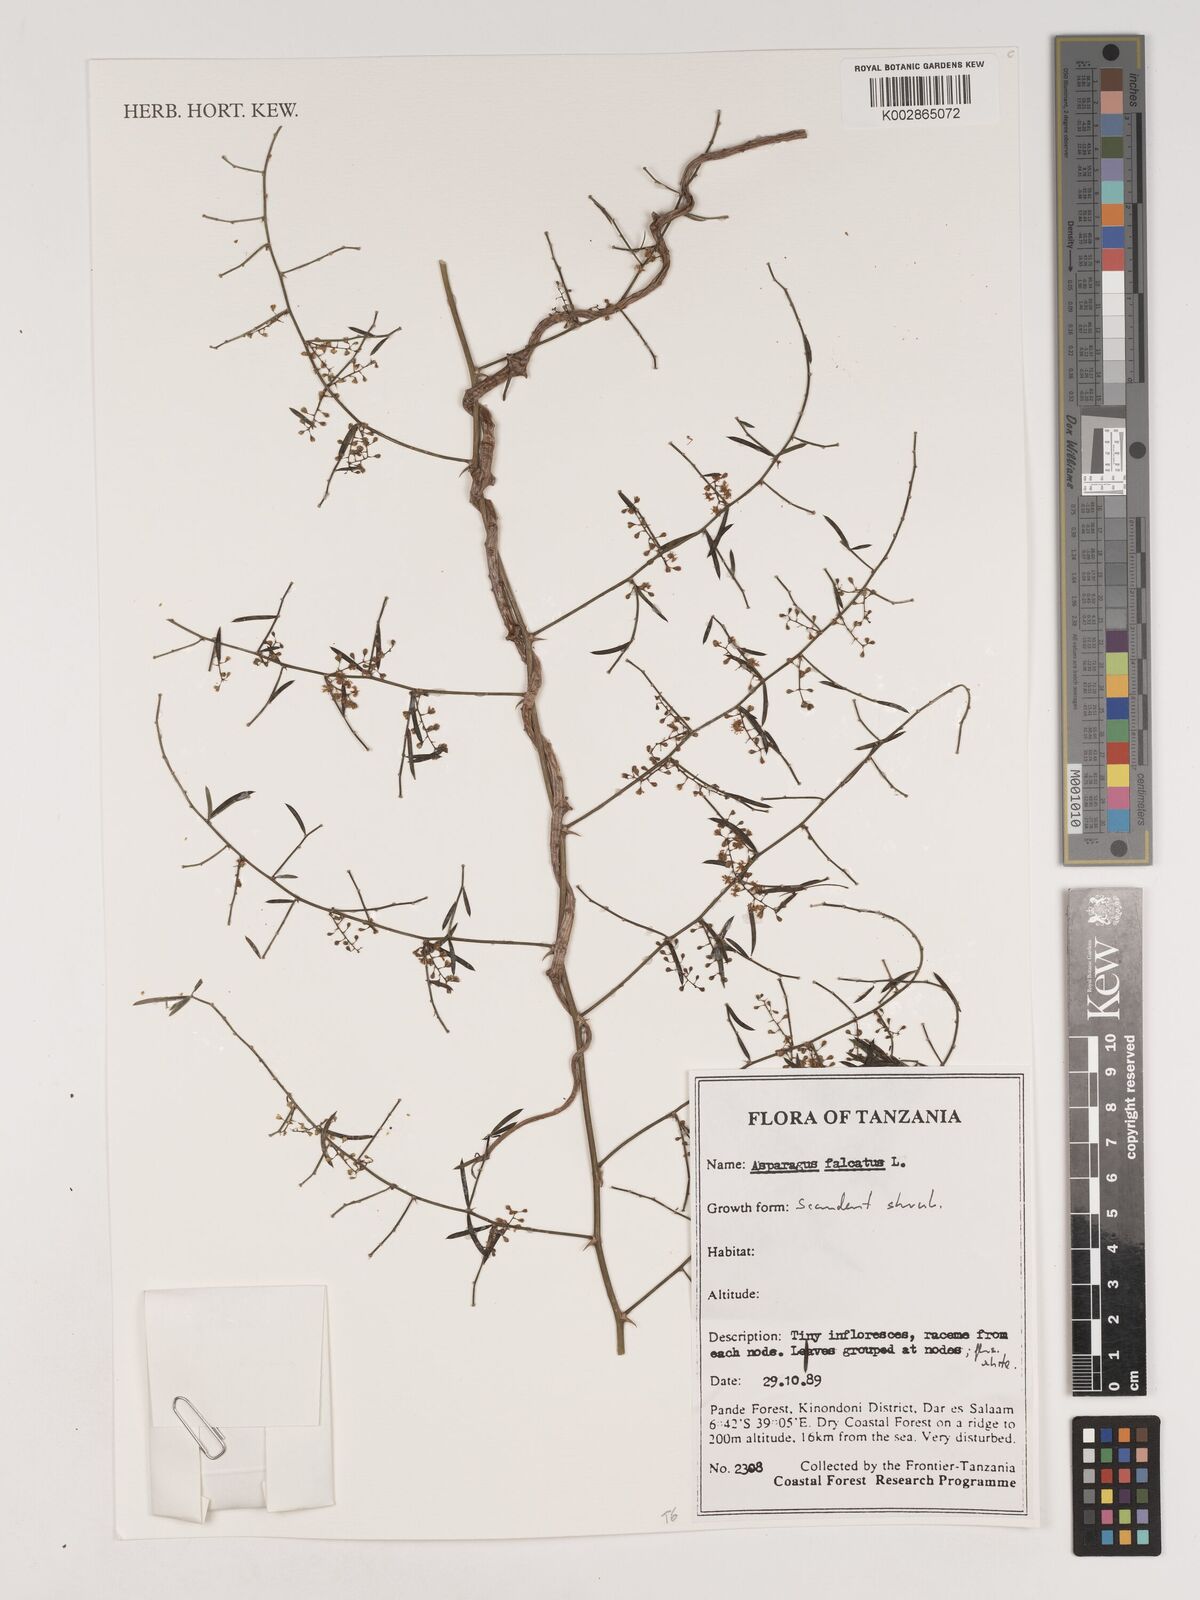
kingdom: Plantae
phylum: Tracheophyta
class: Liliopsida
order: Asparagales
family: Asparagaceae
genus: Asparagus
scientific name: Asparagus falcatus
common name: Asparagus
